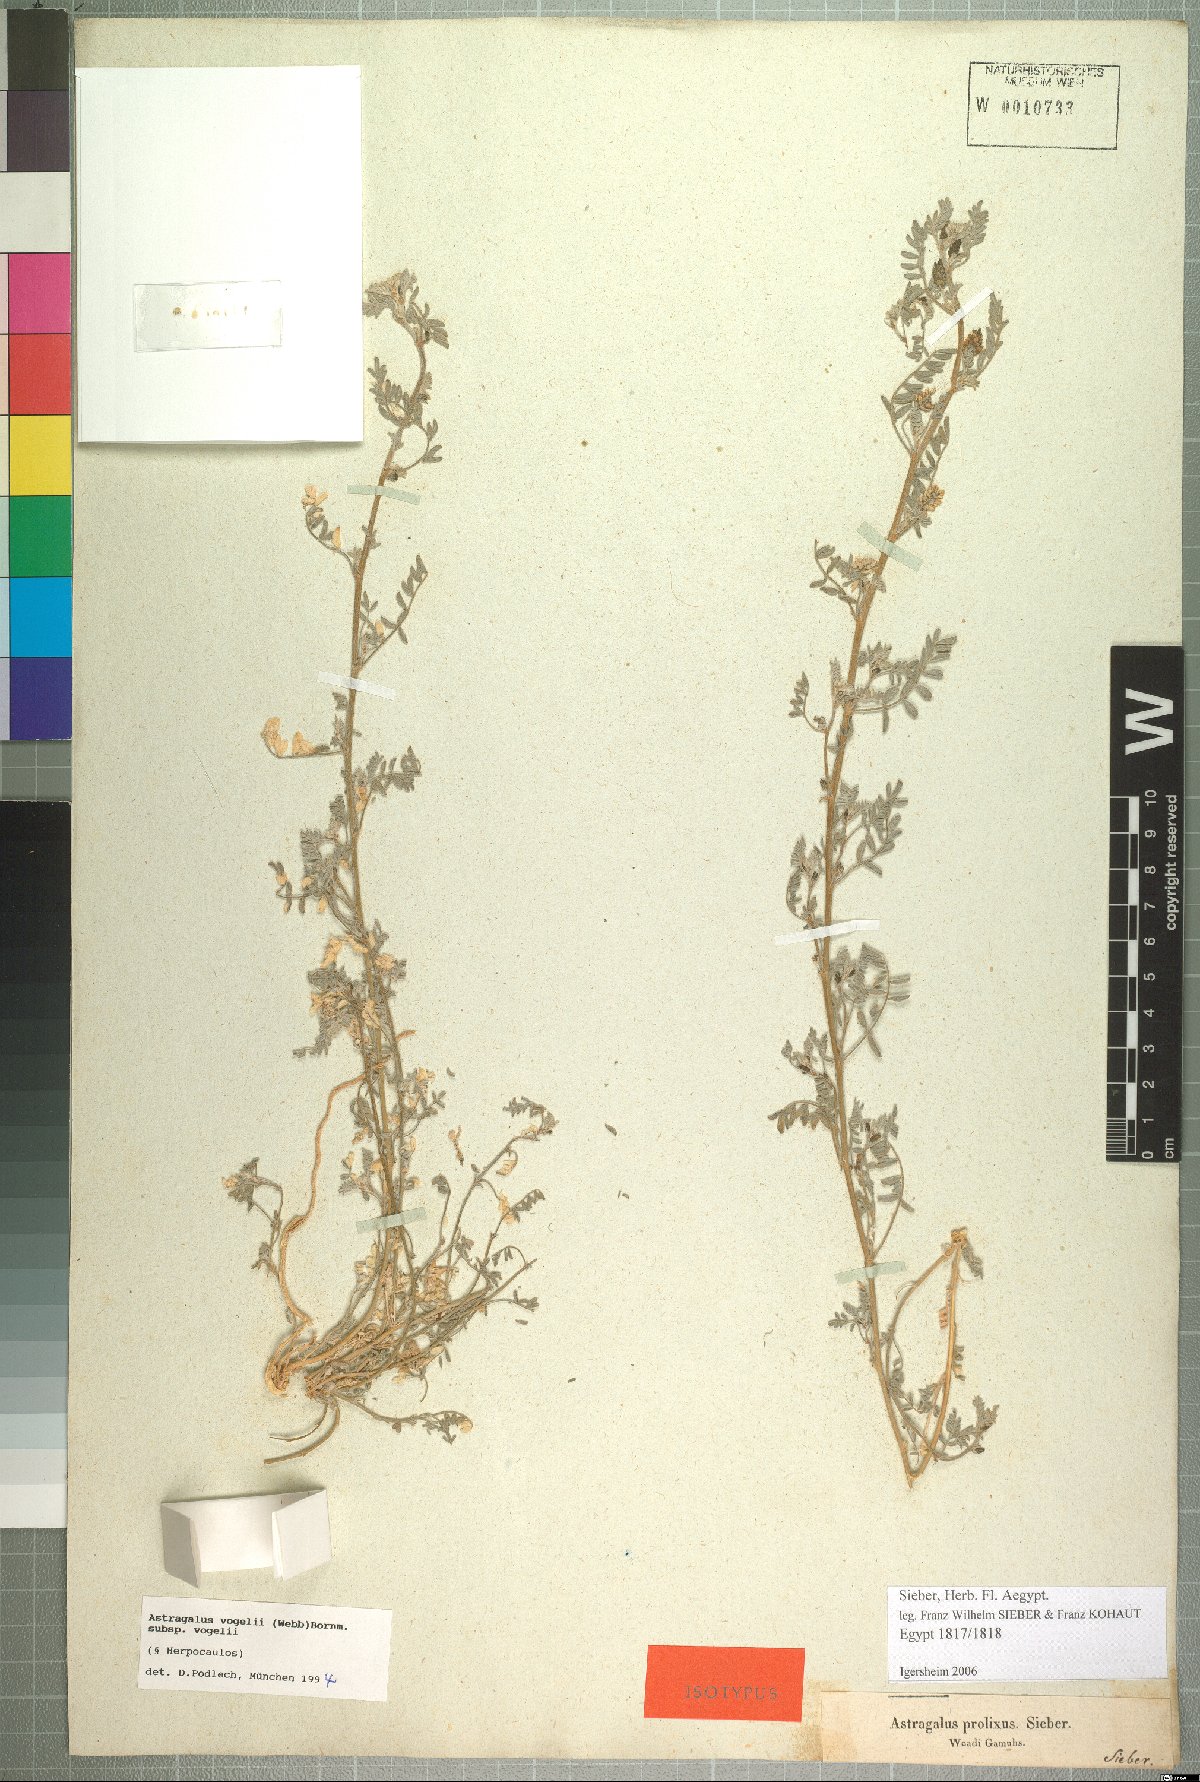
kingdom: Plantae
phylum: Tracheophyta
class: Magnoliopsida
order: Fabales
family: Fabaceae
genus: Astragalus
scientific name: Astragalus vogelii
